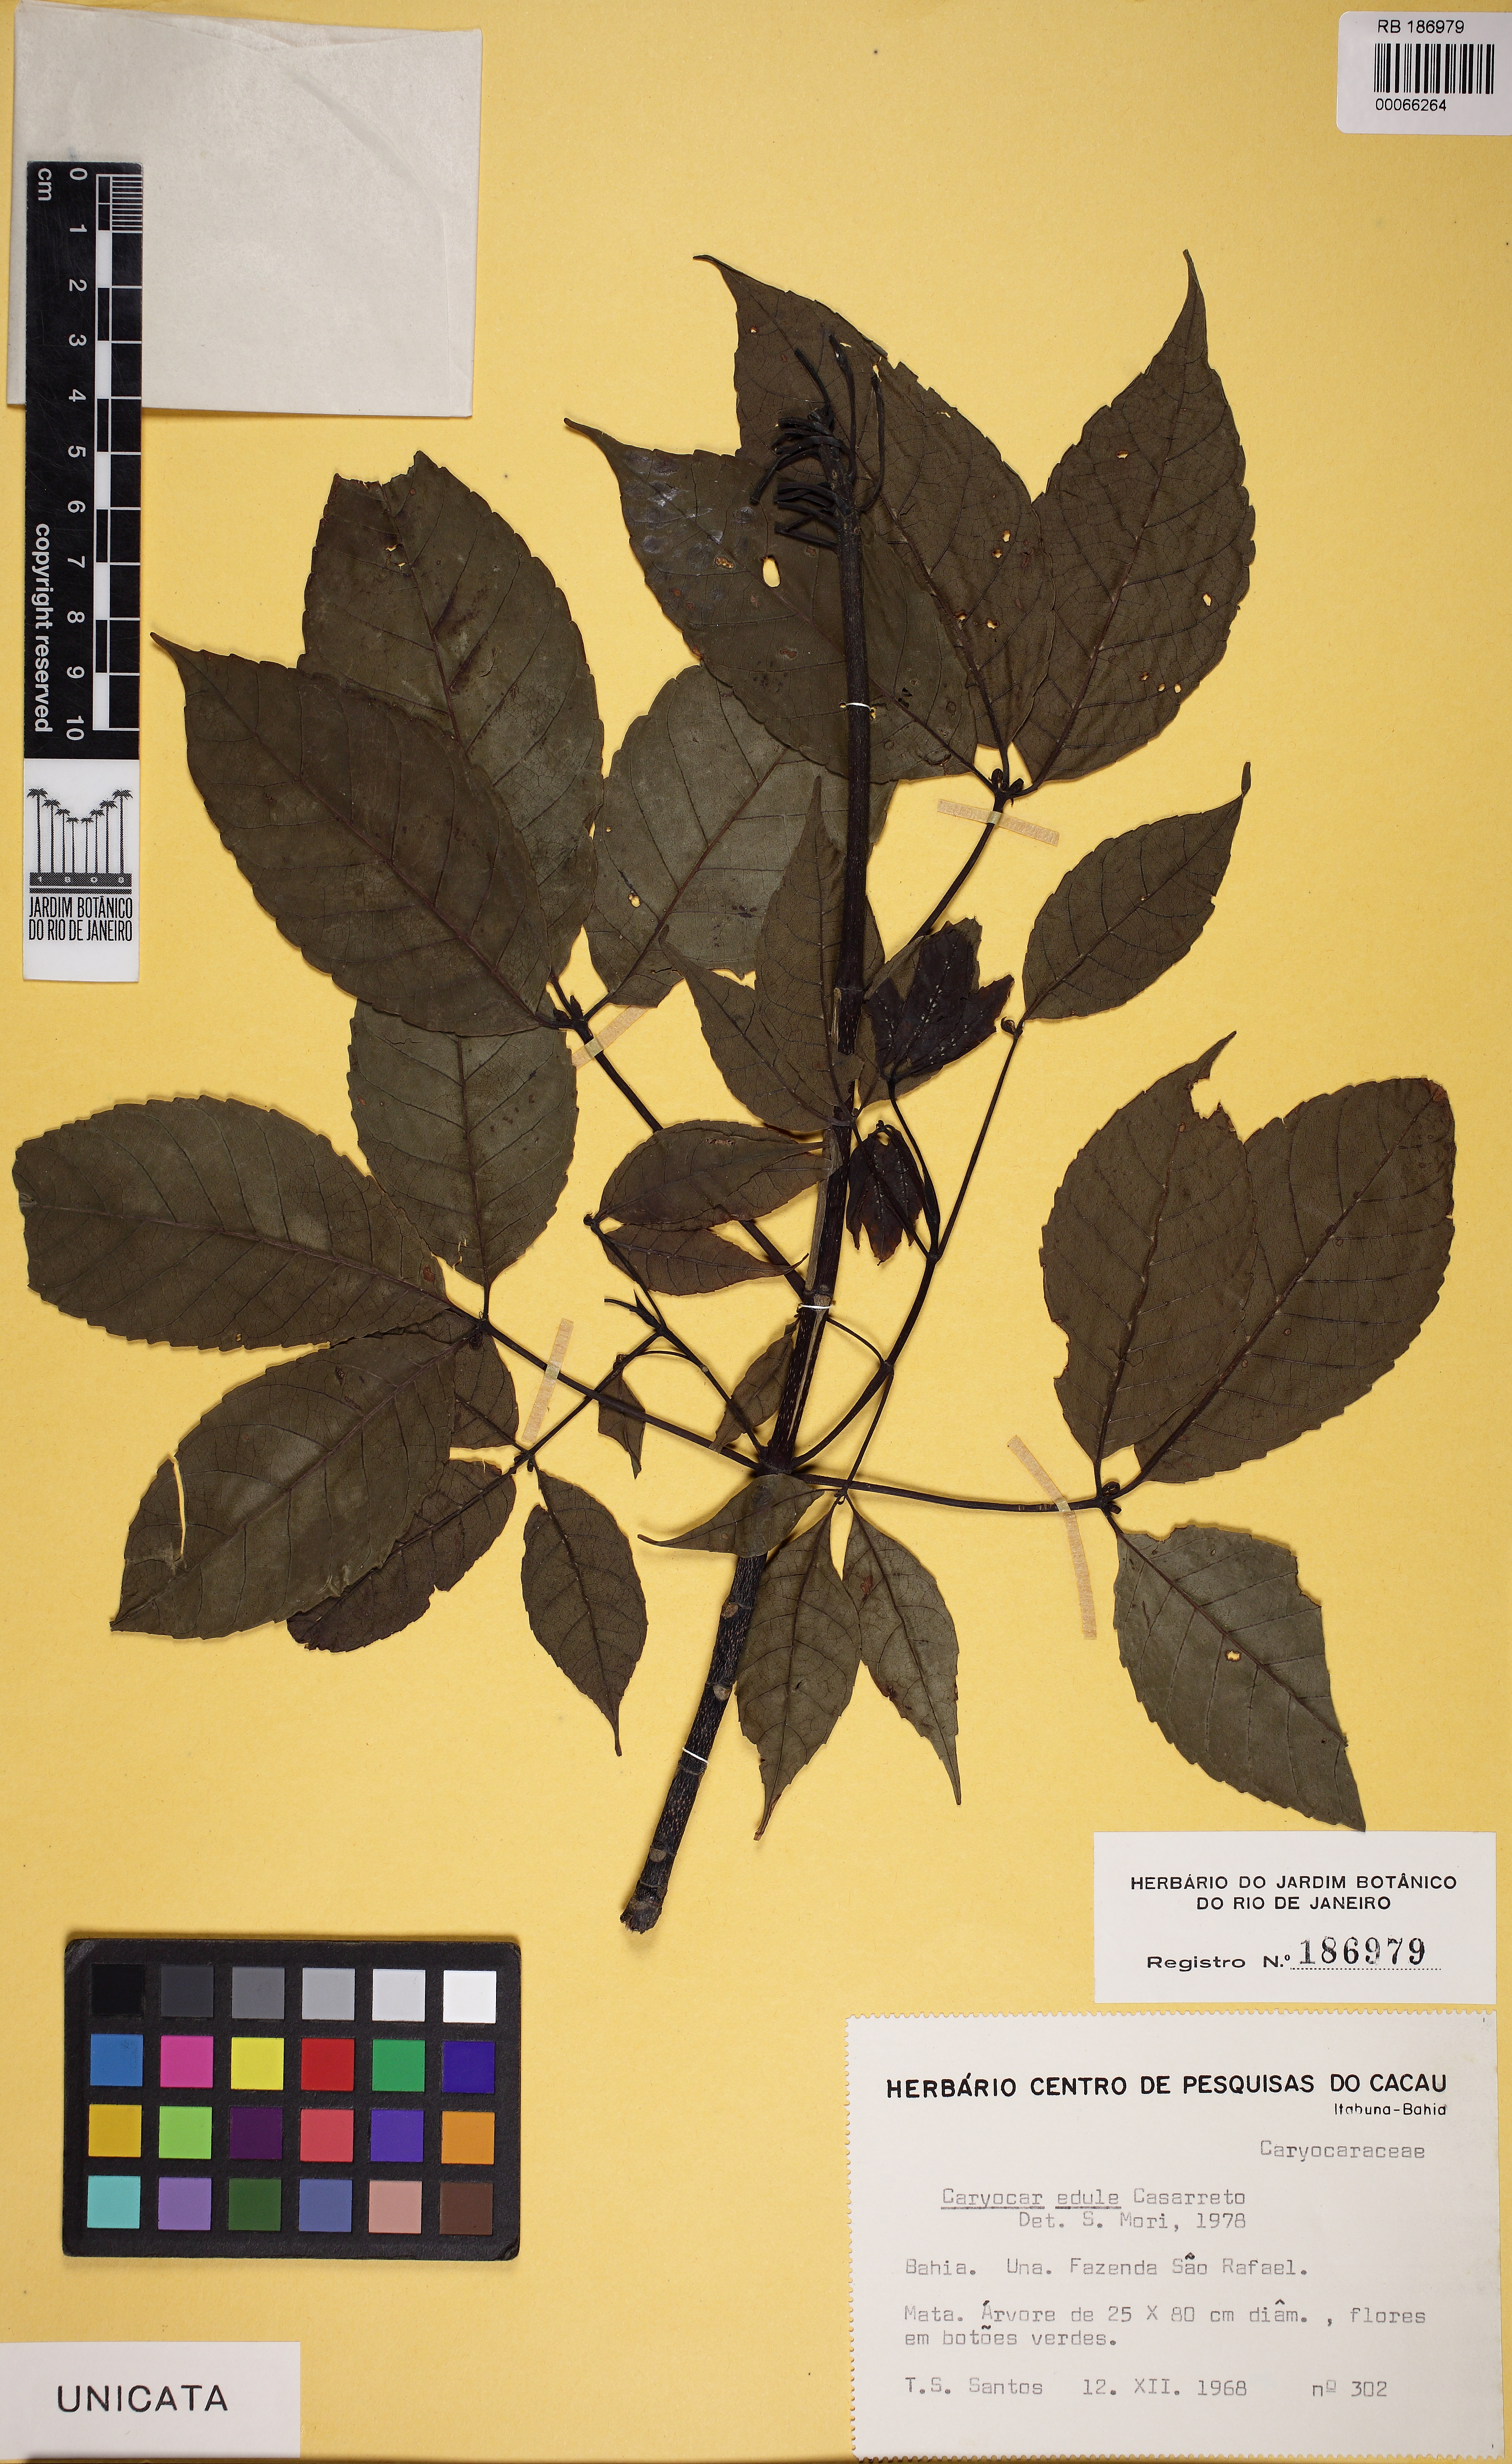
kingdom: Plantae
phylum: Tracheophyta
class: Magnoliopsida
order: Malpighiales
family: Caryocaraceae
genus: Caryocar
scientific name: Caryocar edule
